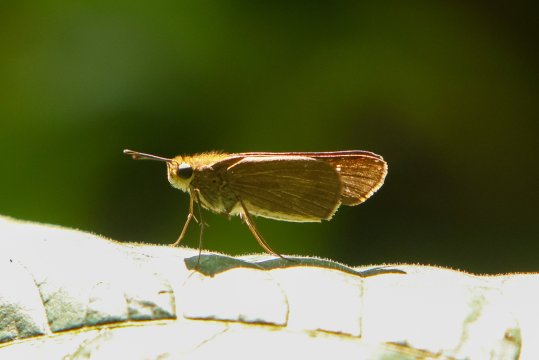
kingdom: Animalia
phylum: Arthropoda
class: Insecta
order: Lepidoptera
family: Hesperiidae
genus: Panoquina
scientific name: Panoquina ocola
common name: Ocola Skipper
